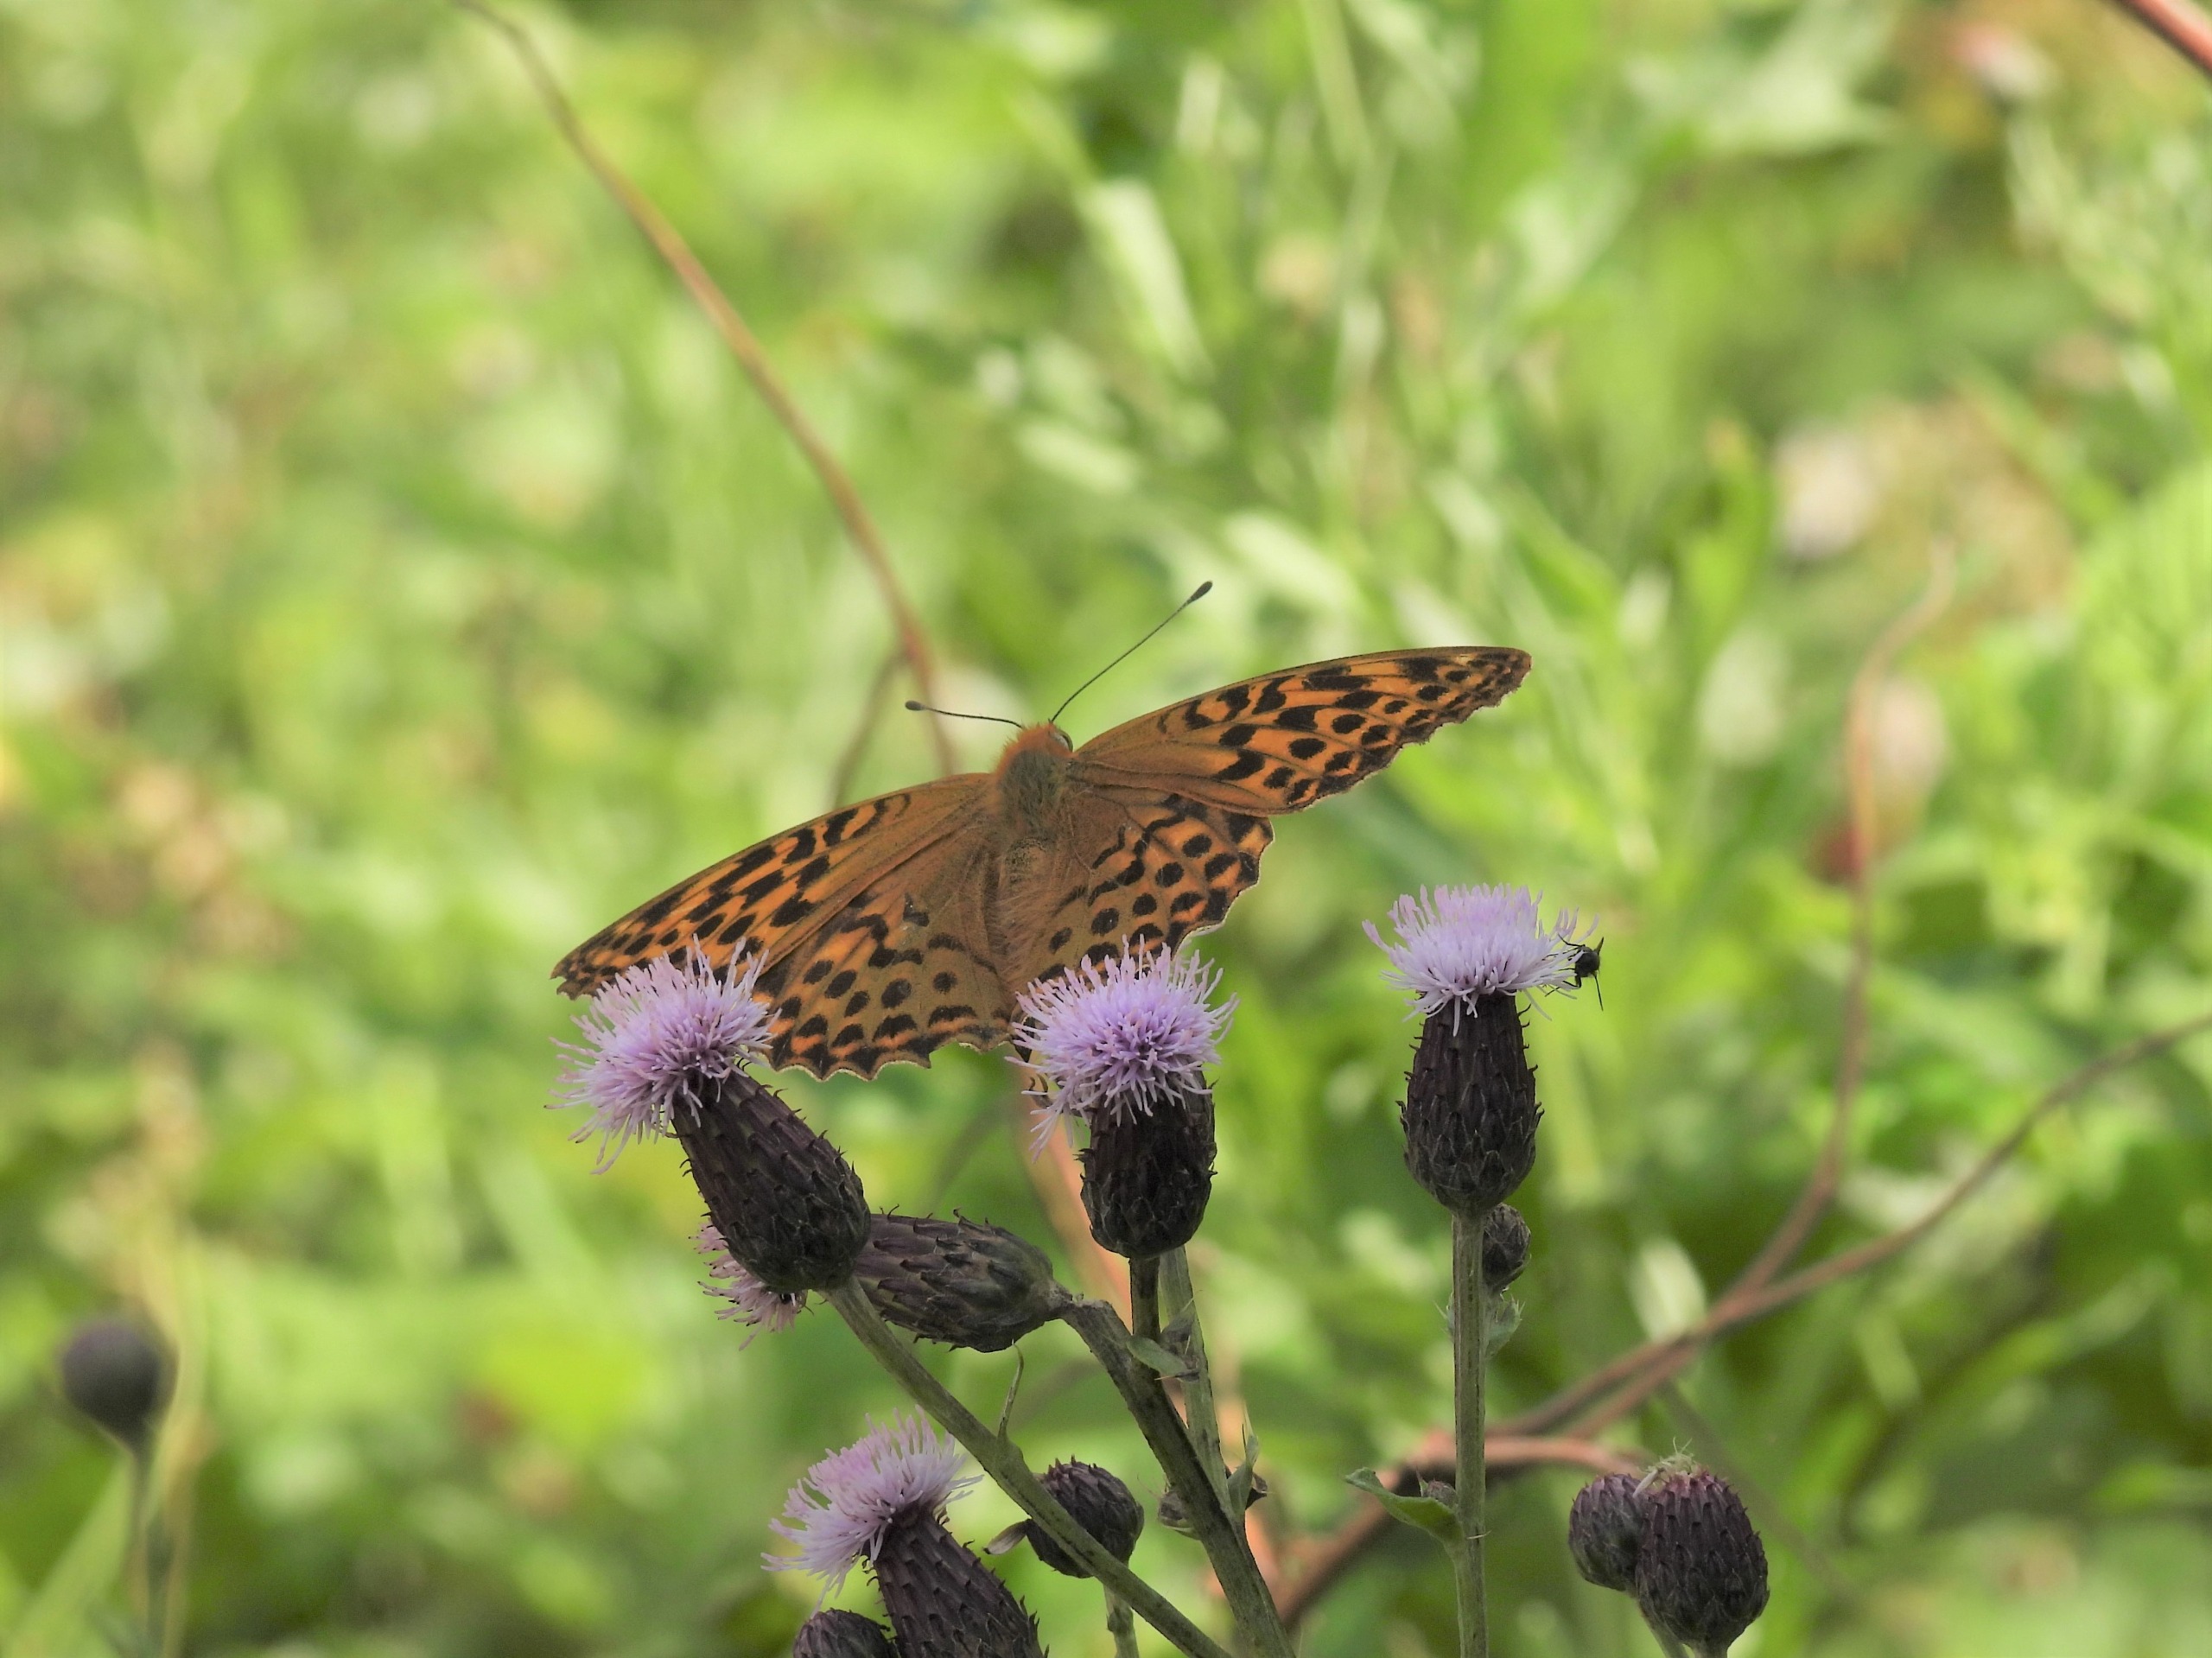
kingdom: Animalia
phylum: Arthropoda
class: Insecta
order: Lepidoptera
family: Nymphalidae
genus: Argynnis
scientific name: Argynnis paphia
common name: Kejserkåbe
